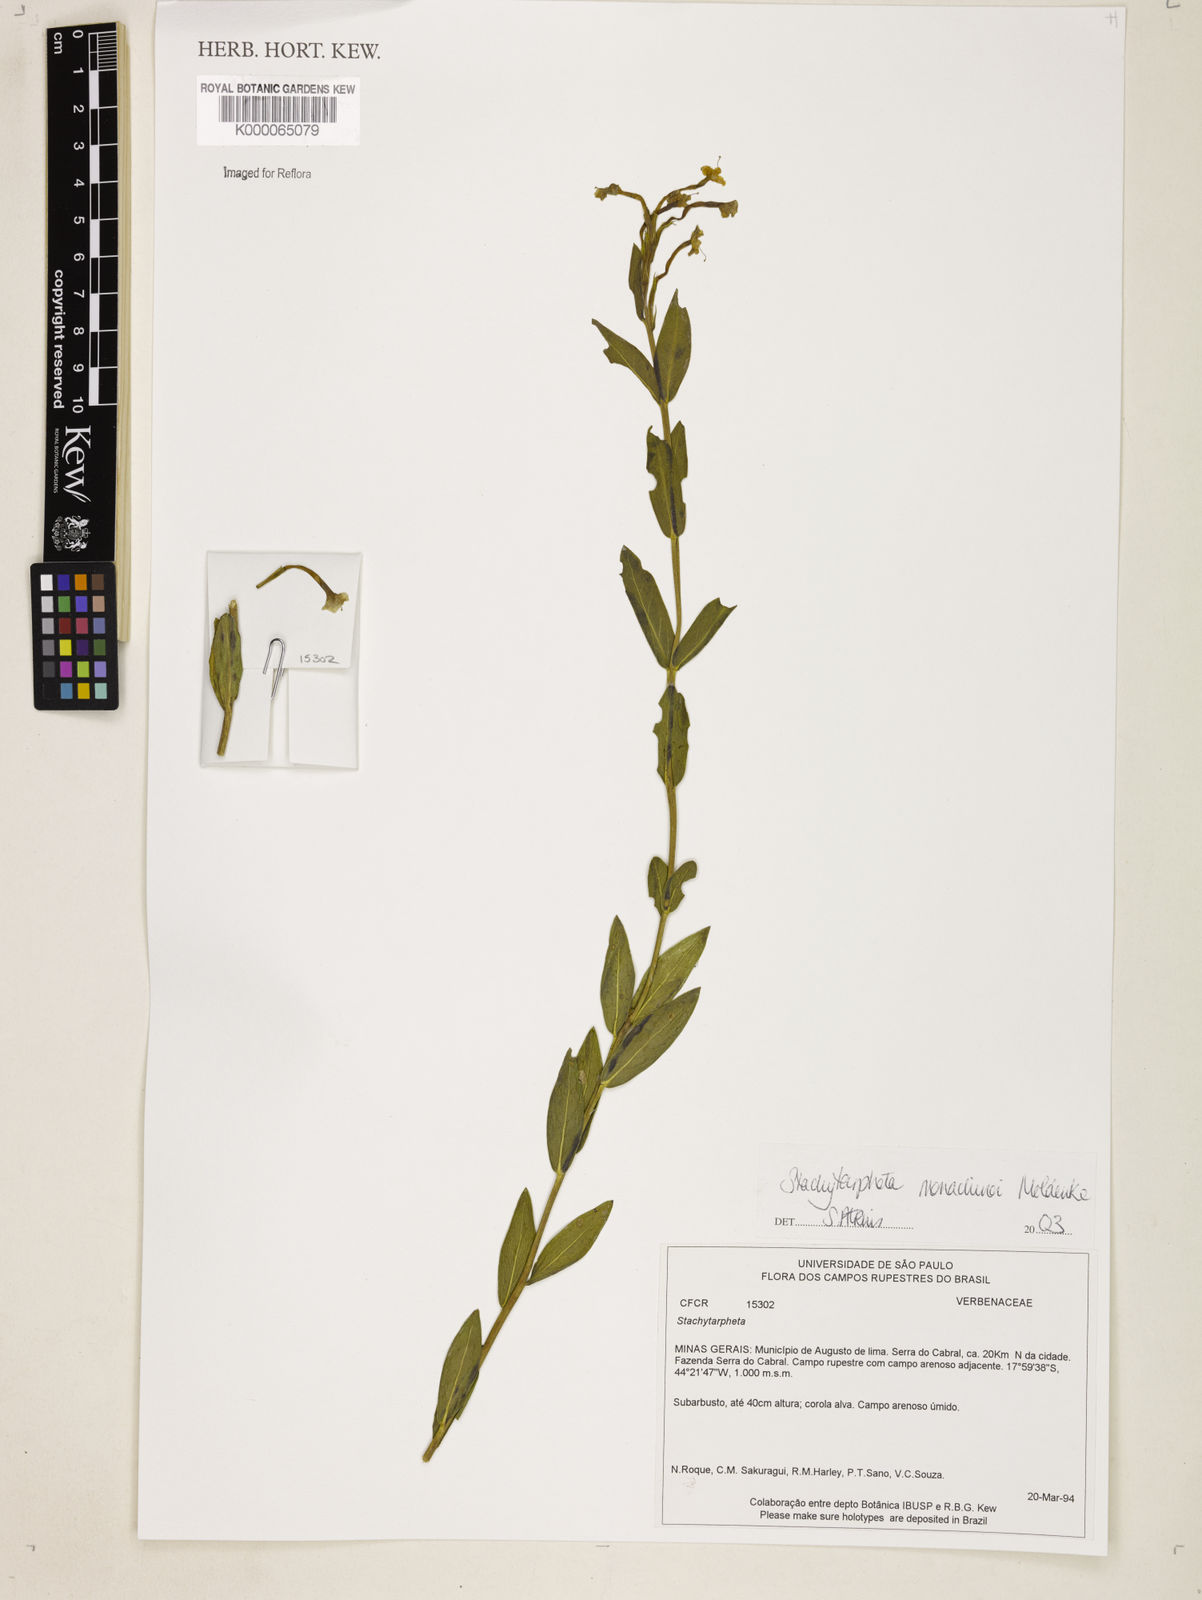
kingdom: Plantae
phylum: Tracheophyta
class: Magnoliopsida
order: Lamiales
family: Verbenaceae
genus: Stachytarpheta
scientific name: Stachytarpheta
